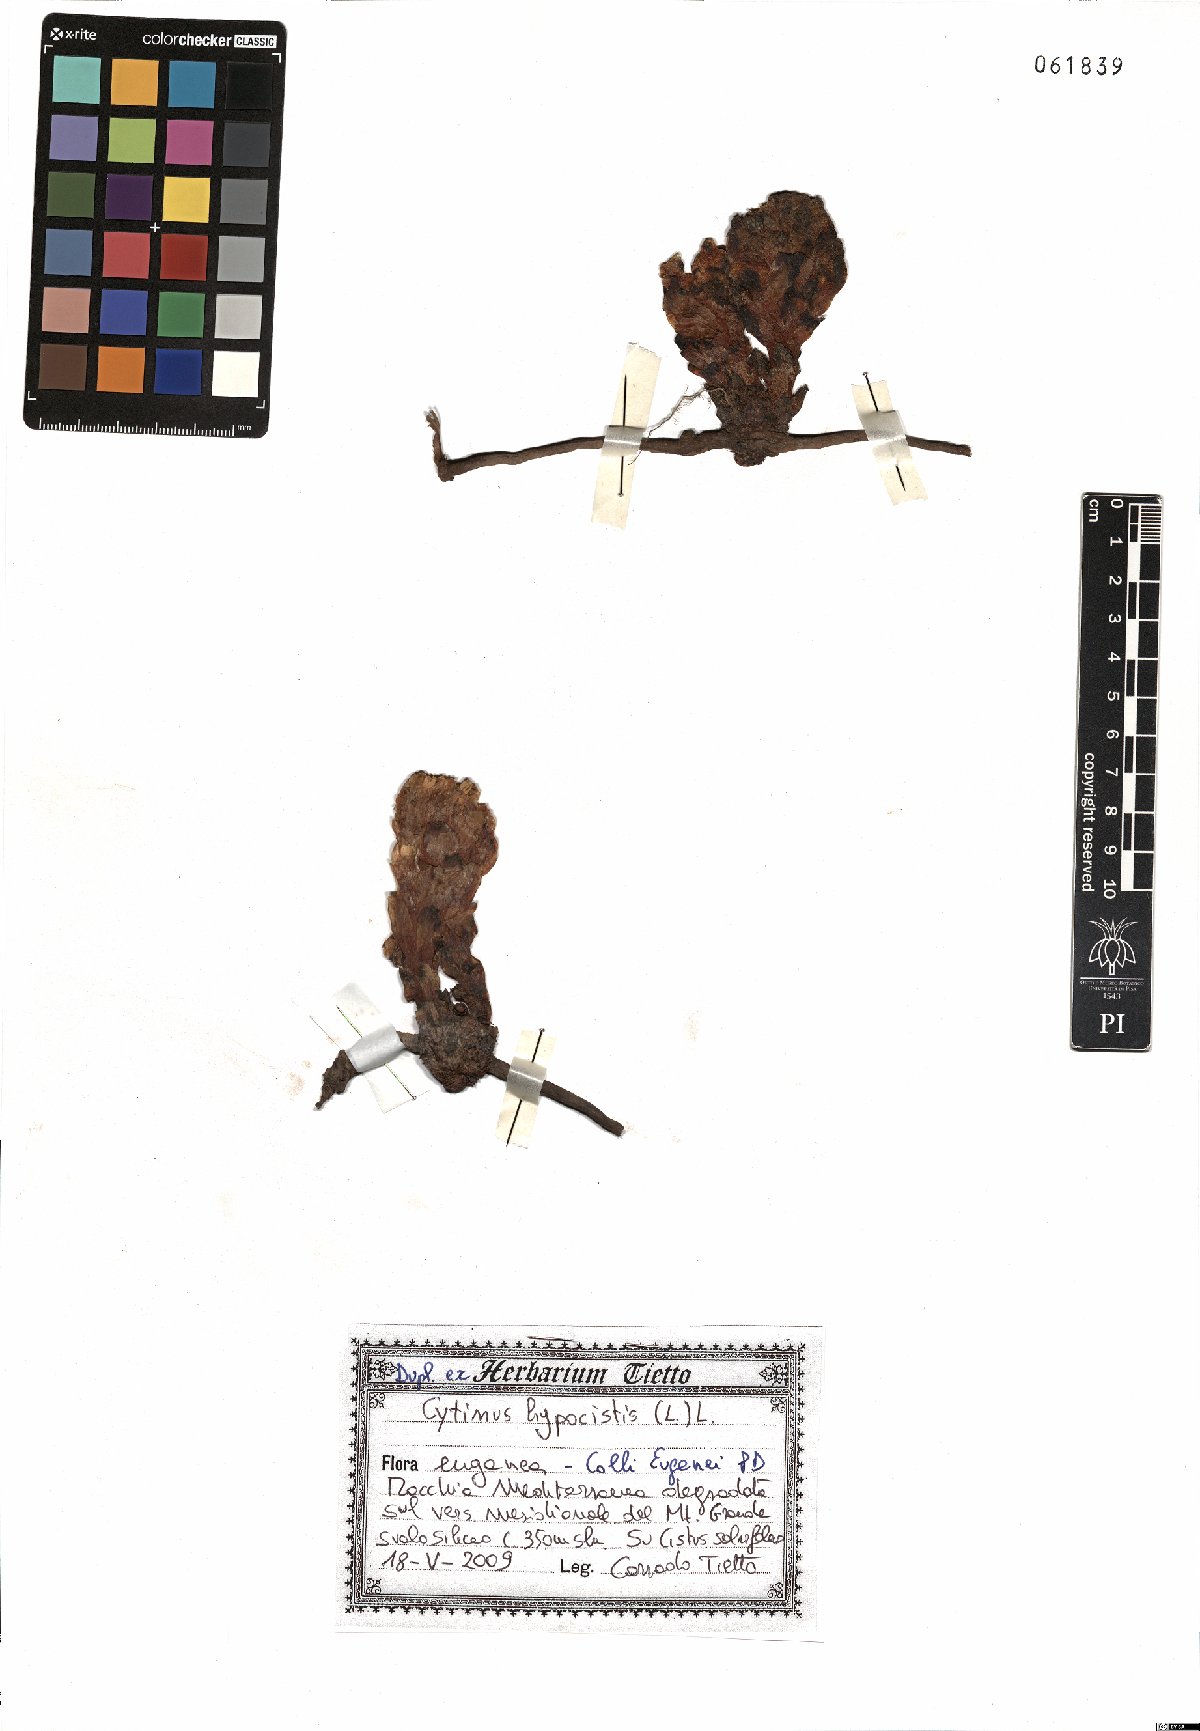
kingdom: Plantae
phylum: Tracheophyta
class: Magnoliopsida
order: Malvales
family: Cytinaceae
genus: Cytinus
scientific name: Cytinus hypocistis
